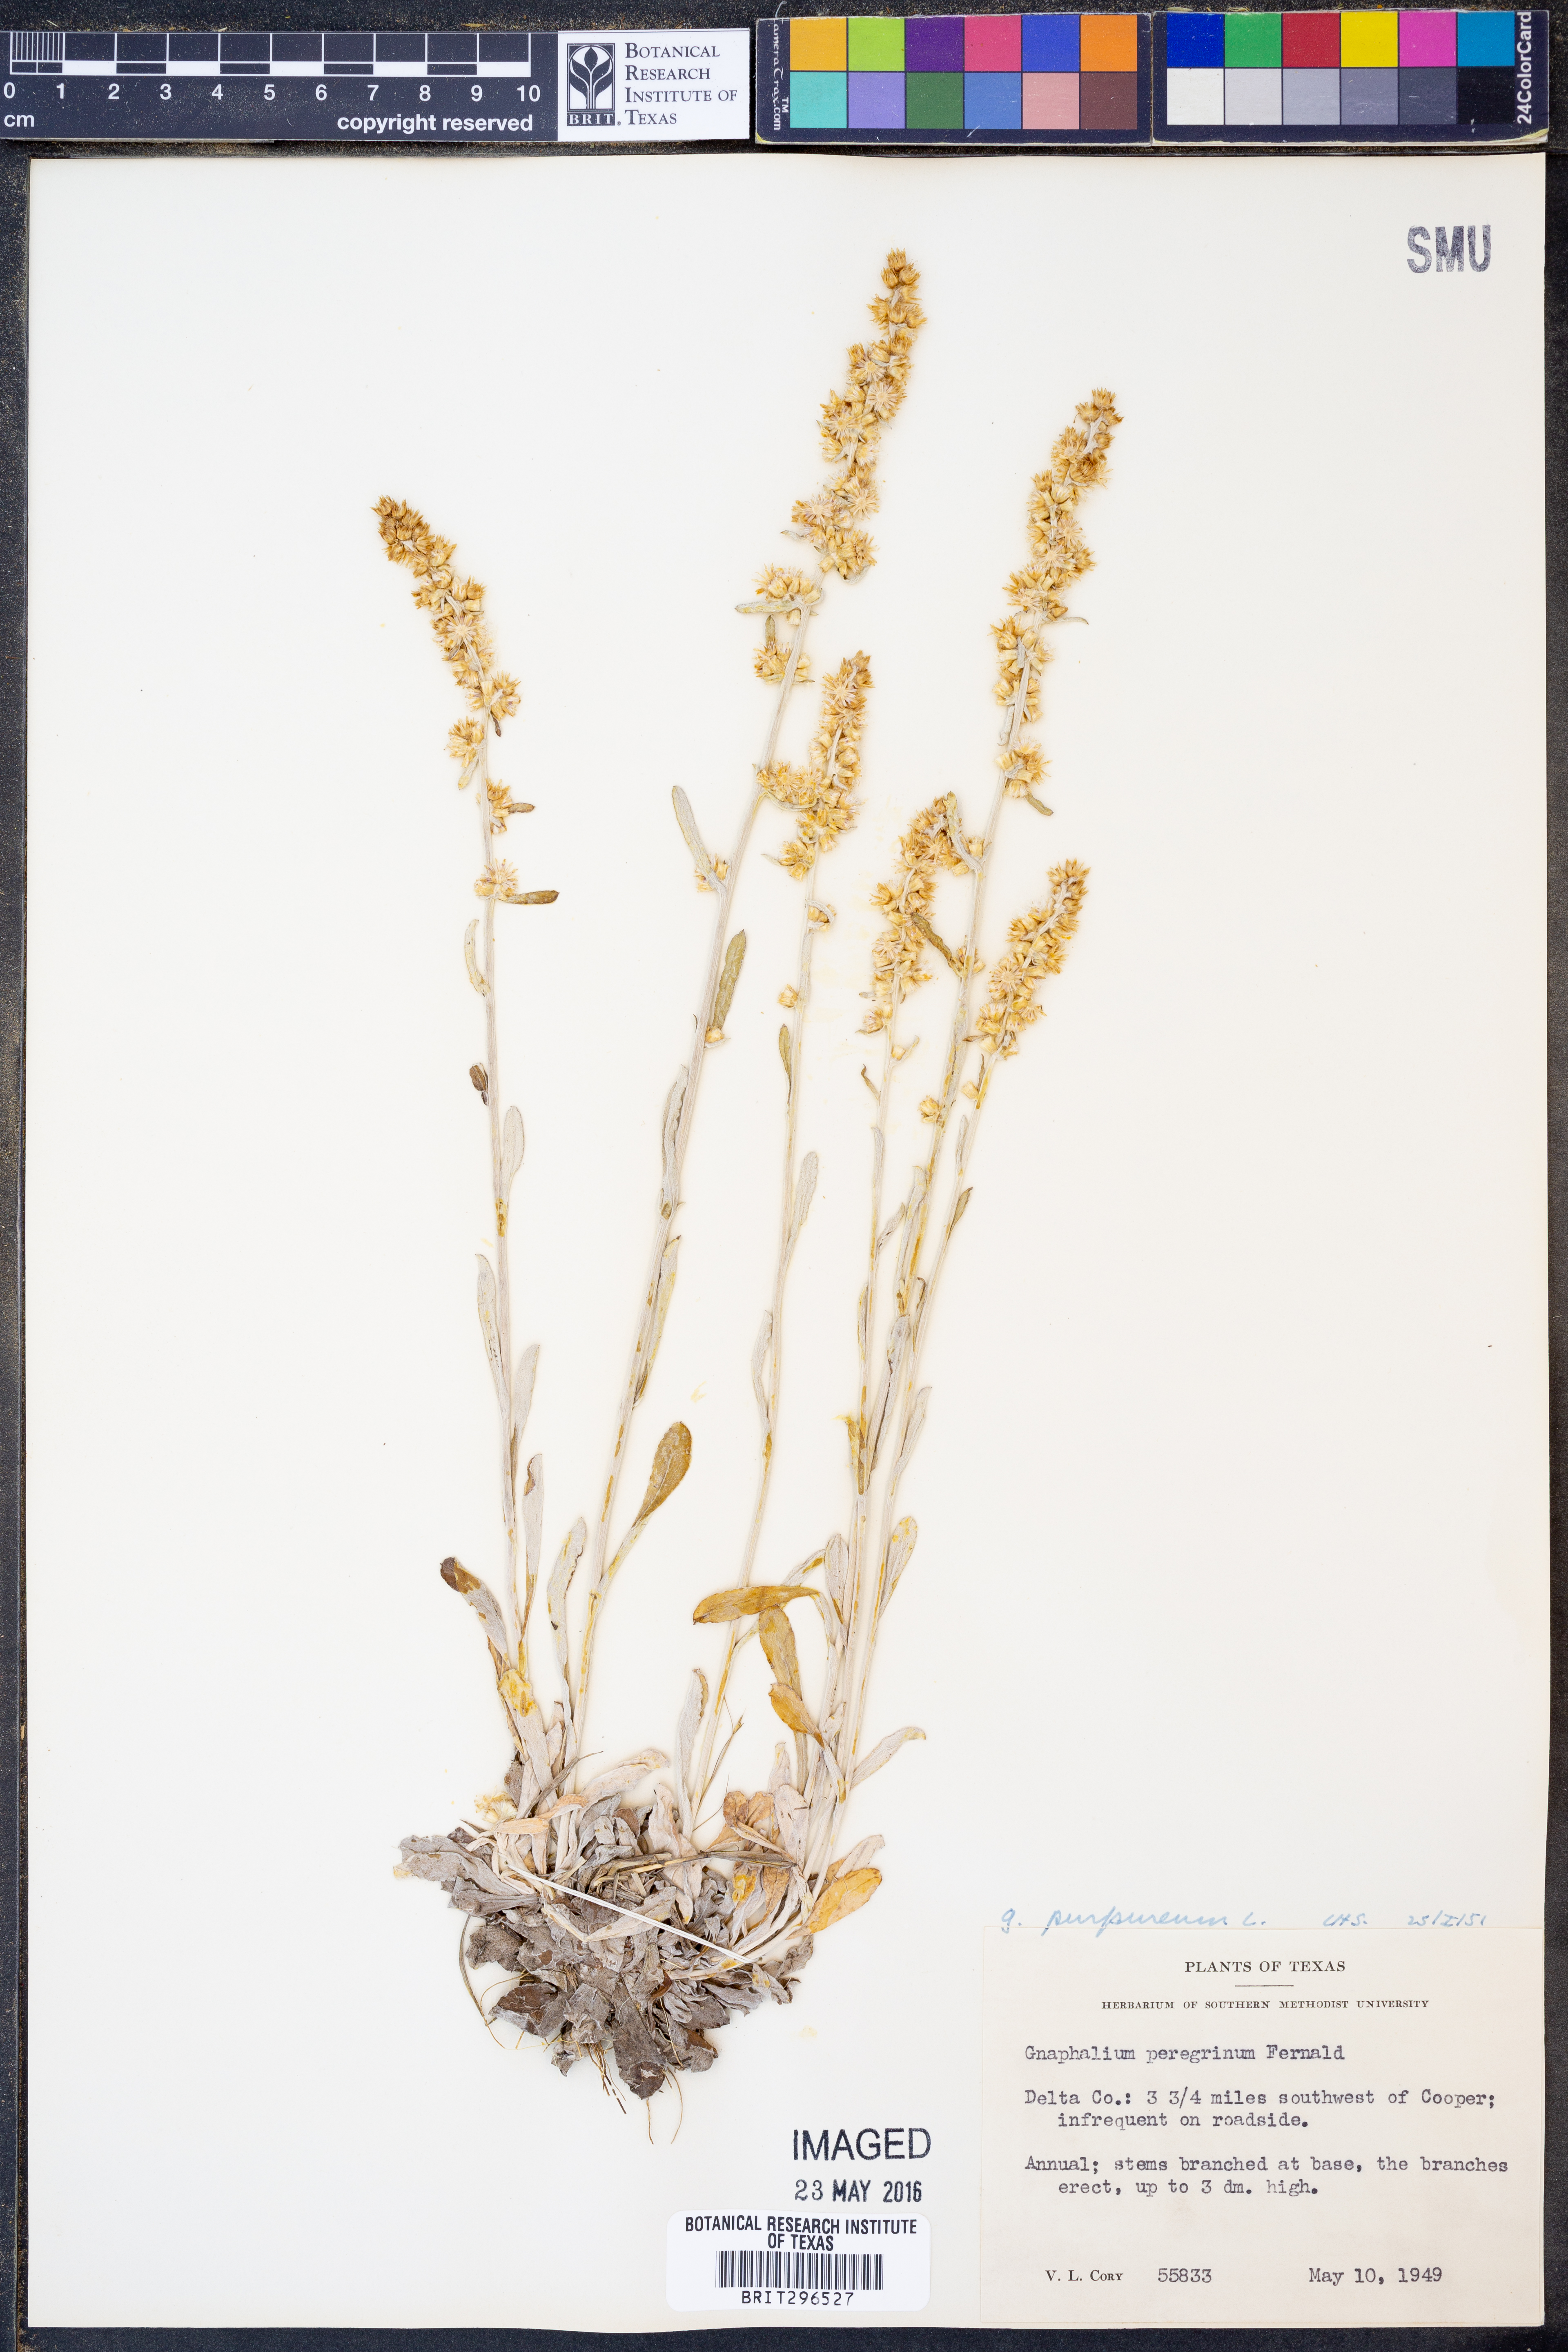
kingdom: Plantae
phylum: Tracheophyta
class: Magnoliopsida
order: Asterales
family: Asteraceae
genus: Gamochaeta
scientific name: Gamochaeta purpurea
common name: Purple cudweed
